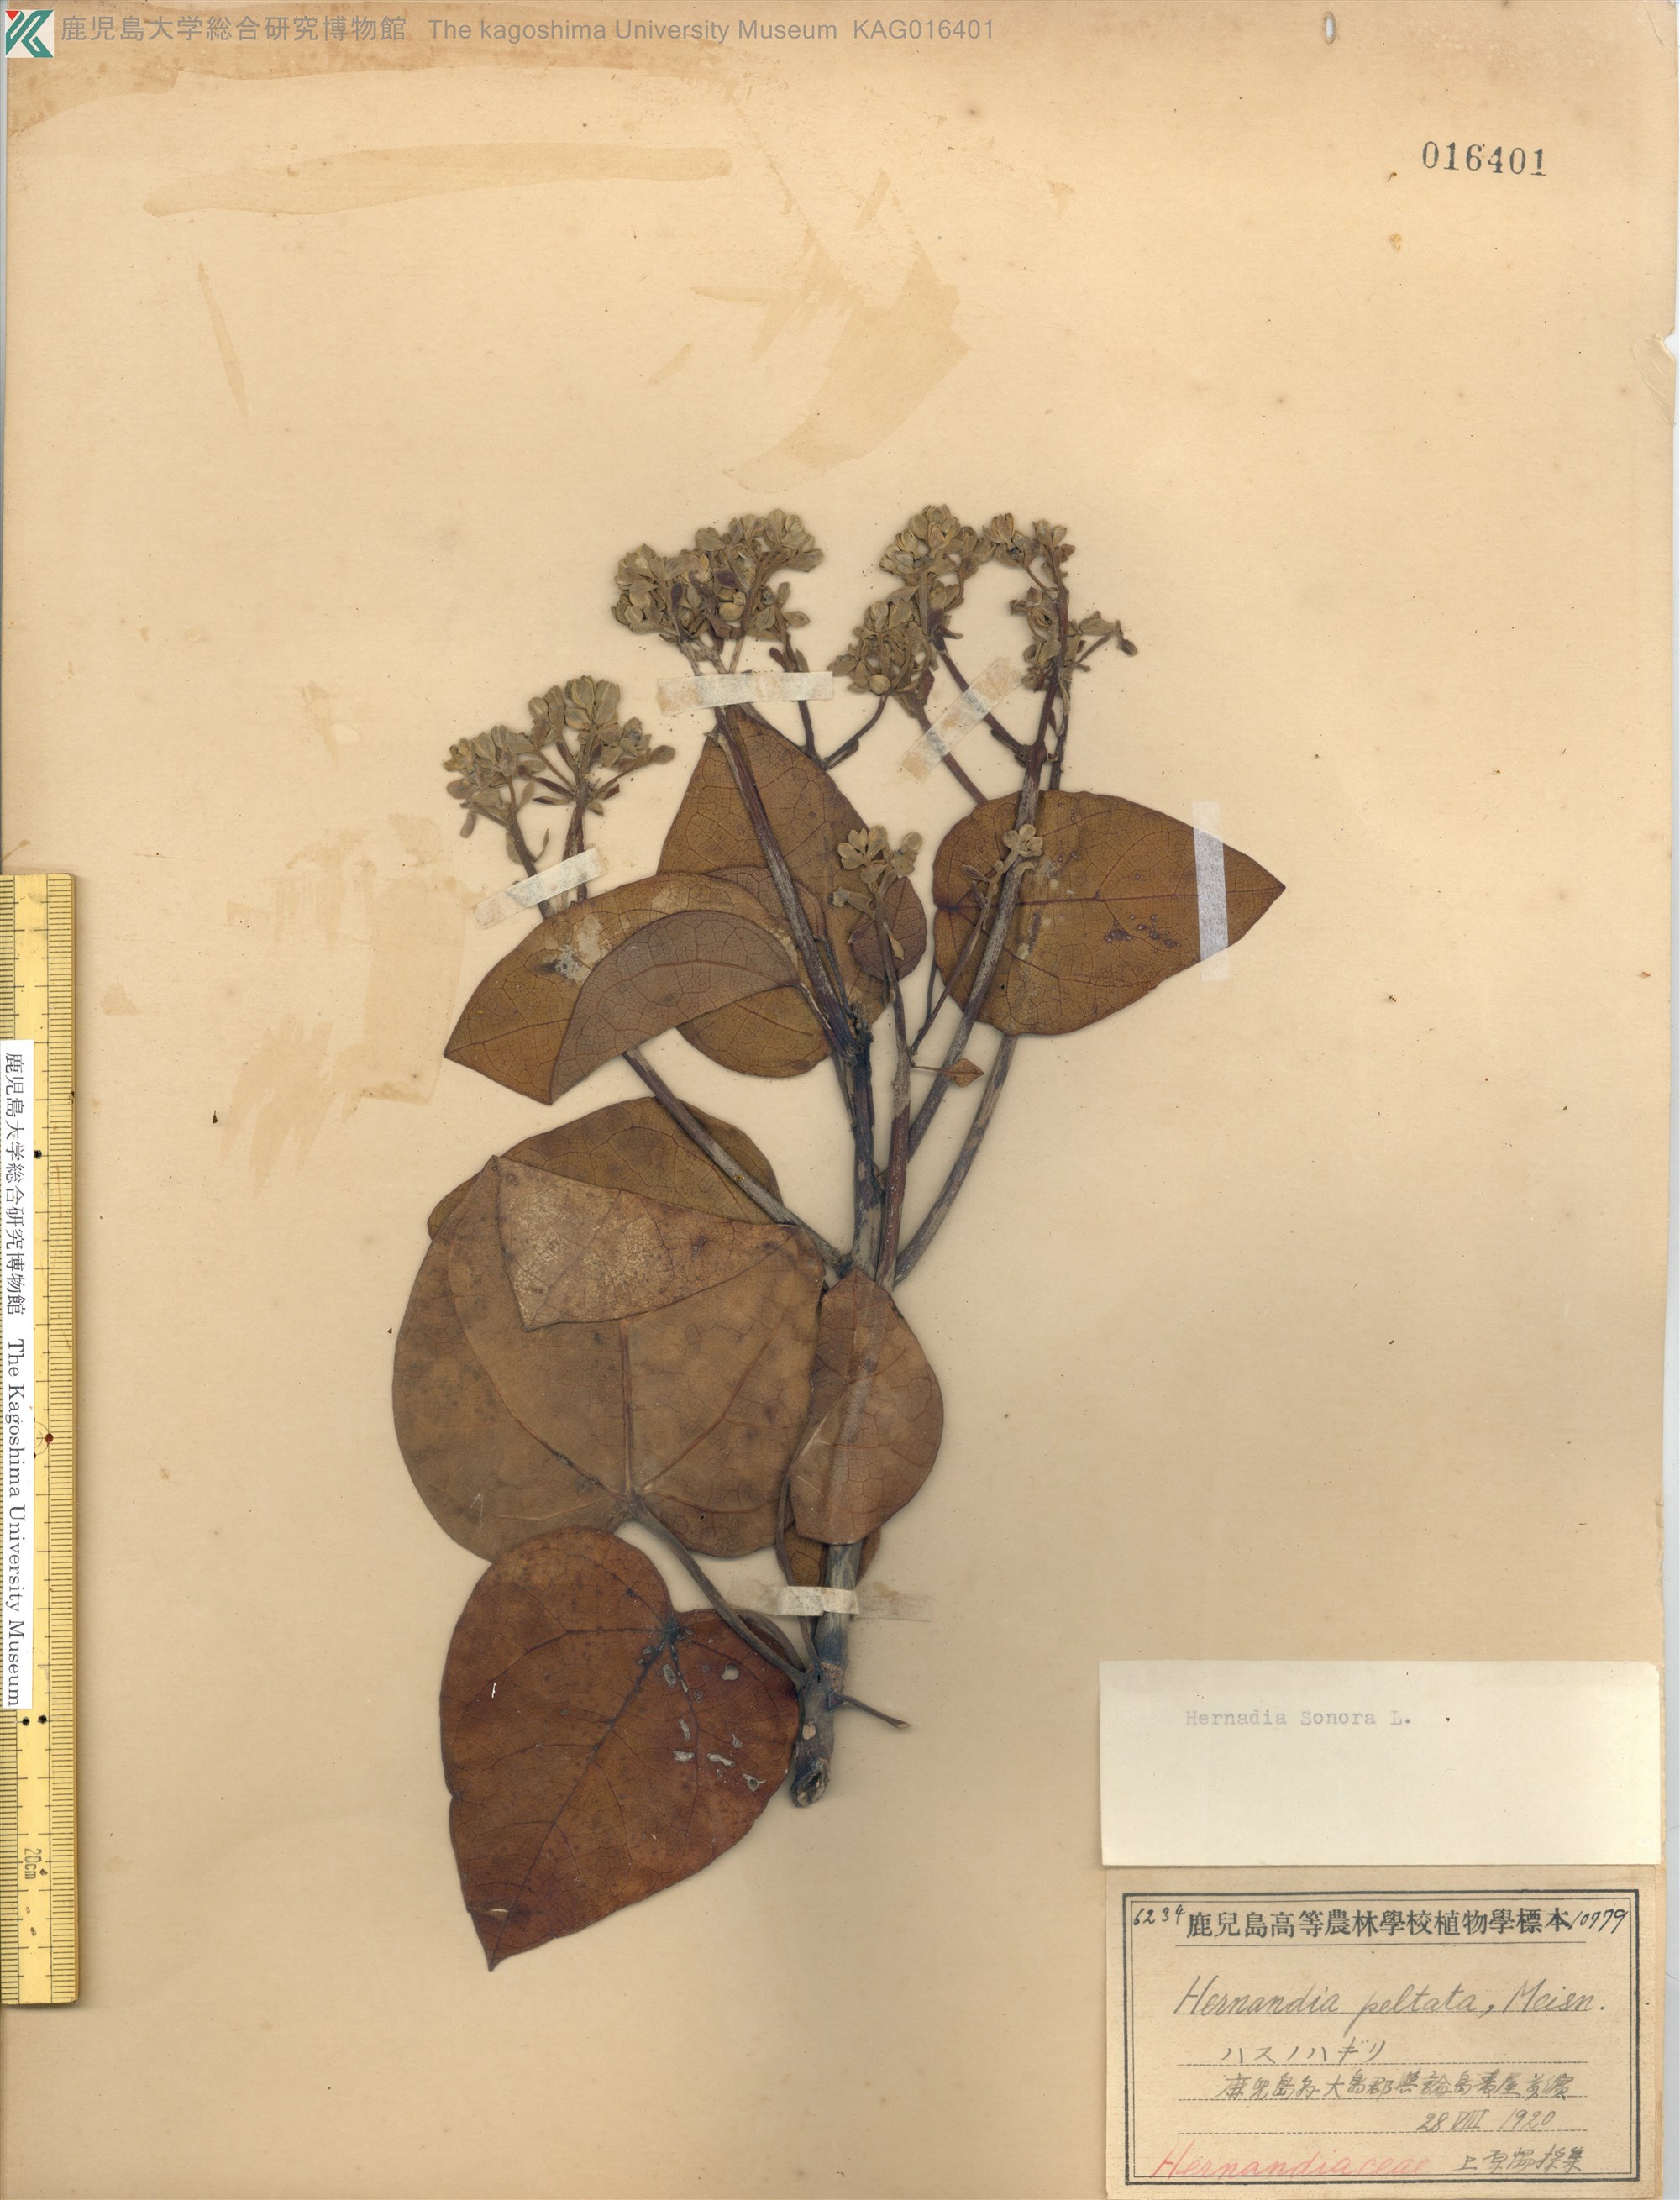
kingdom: Plantae
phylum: Tracheophyta
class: Magnoliopsida
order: Laurales
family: Hernandiaceae
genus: Hernandia
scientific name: Hernandia nymphaeifolia
